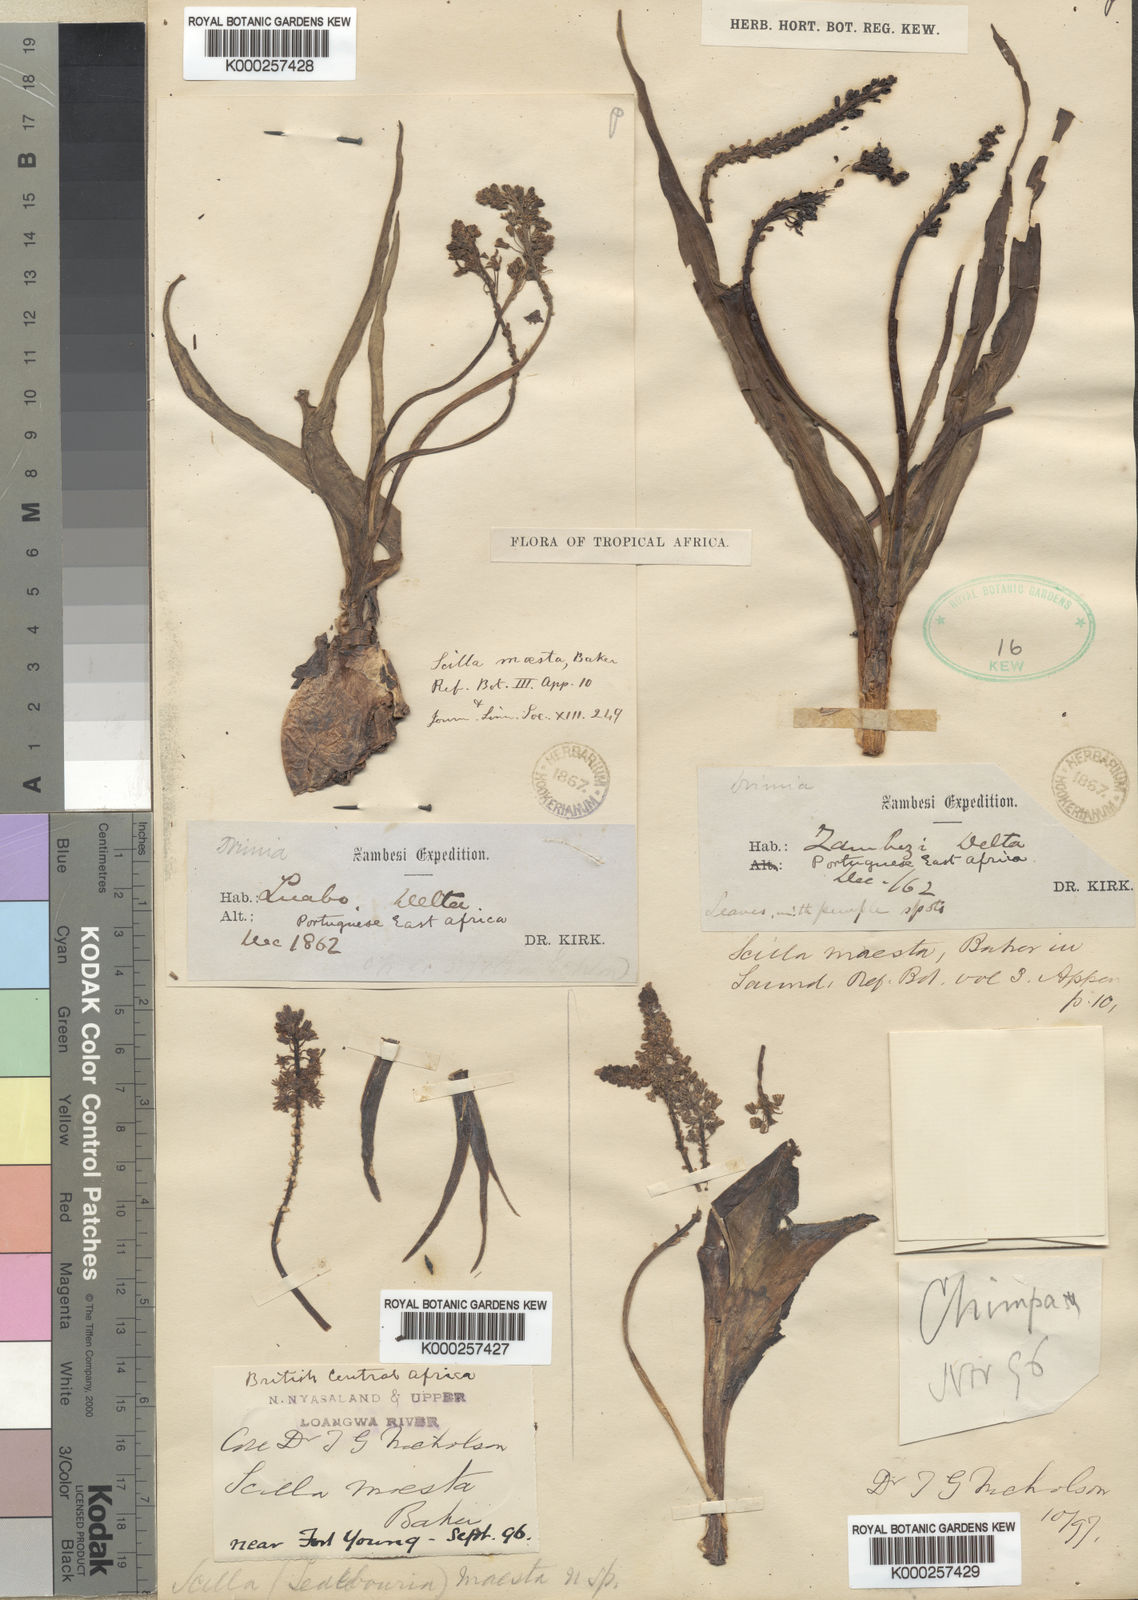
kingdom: Plantae
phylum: Tracheophyta
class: Liliopsida
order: Asparagales
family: Asparagaceae
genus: Ledebouria
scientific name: Ledebouria maesta
